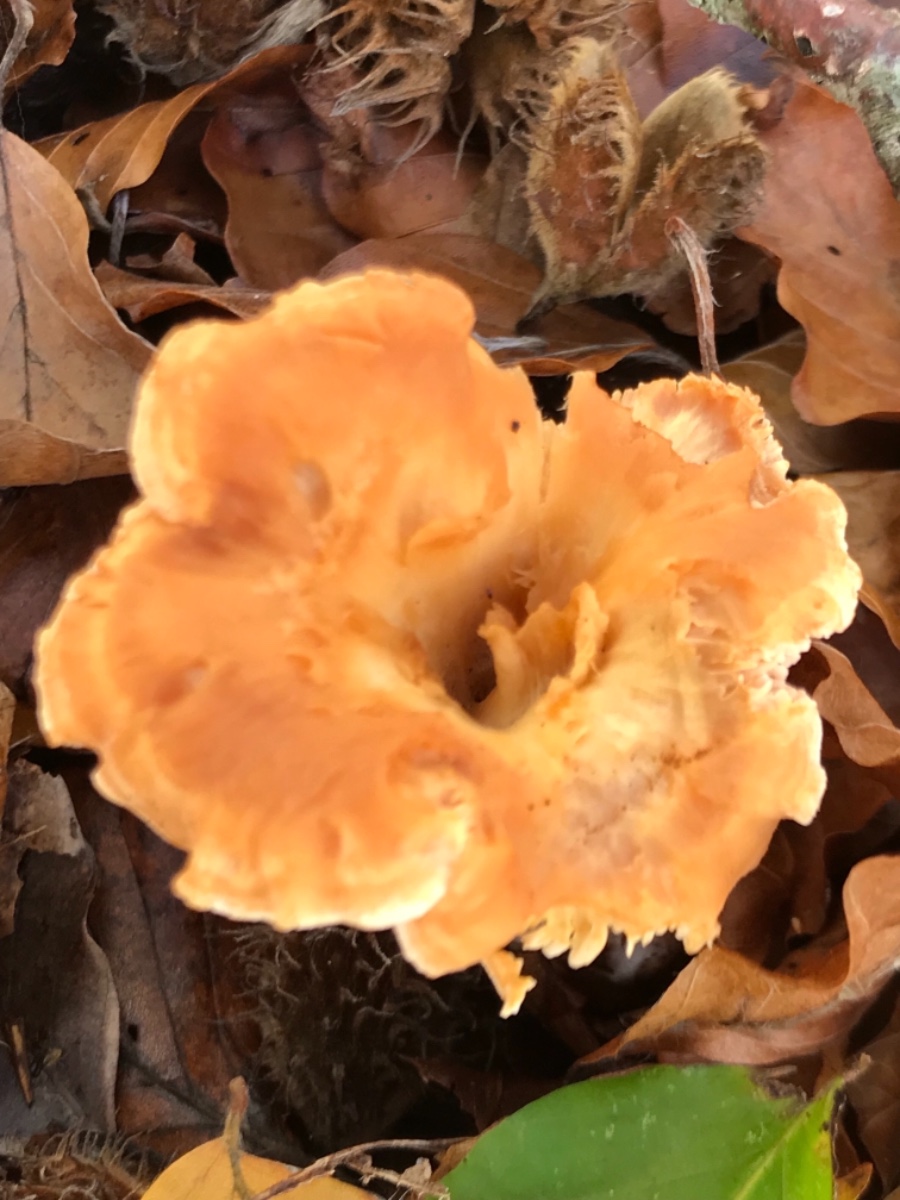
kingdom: Fungi
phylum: Basidiomycota
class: Agaricomycetes
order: Cantharellales
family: Hydnaceae
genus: Hydnum
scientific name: Hydnum rufescens
